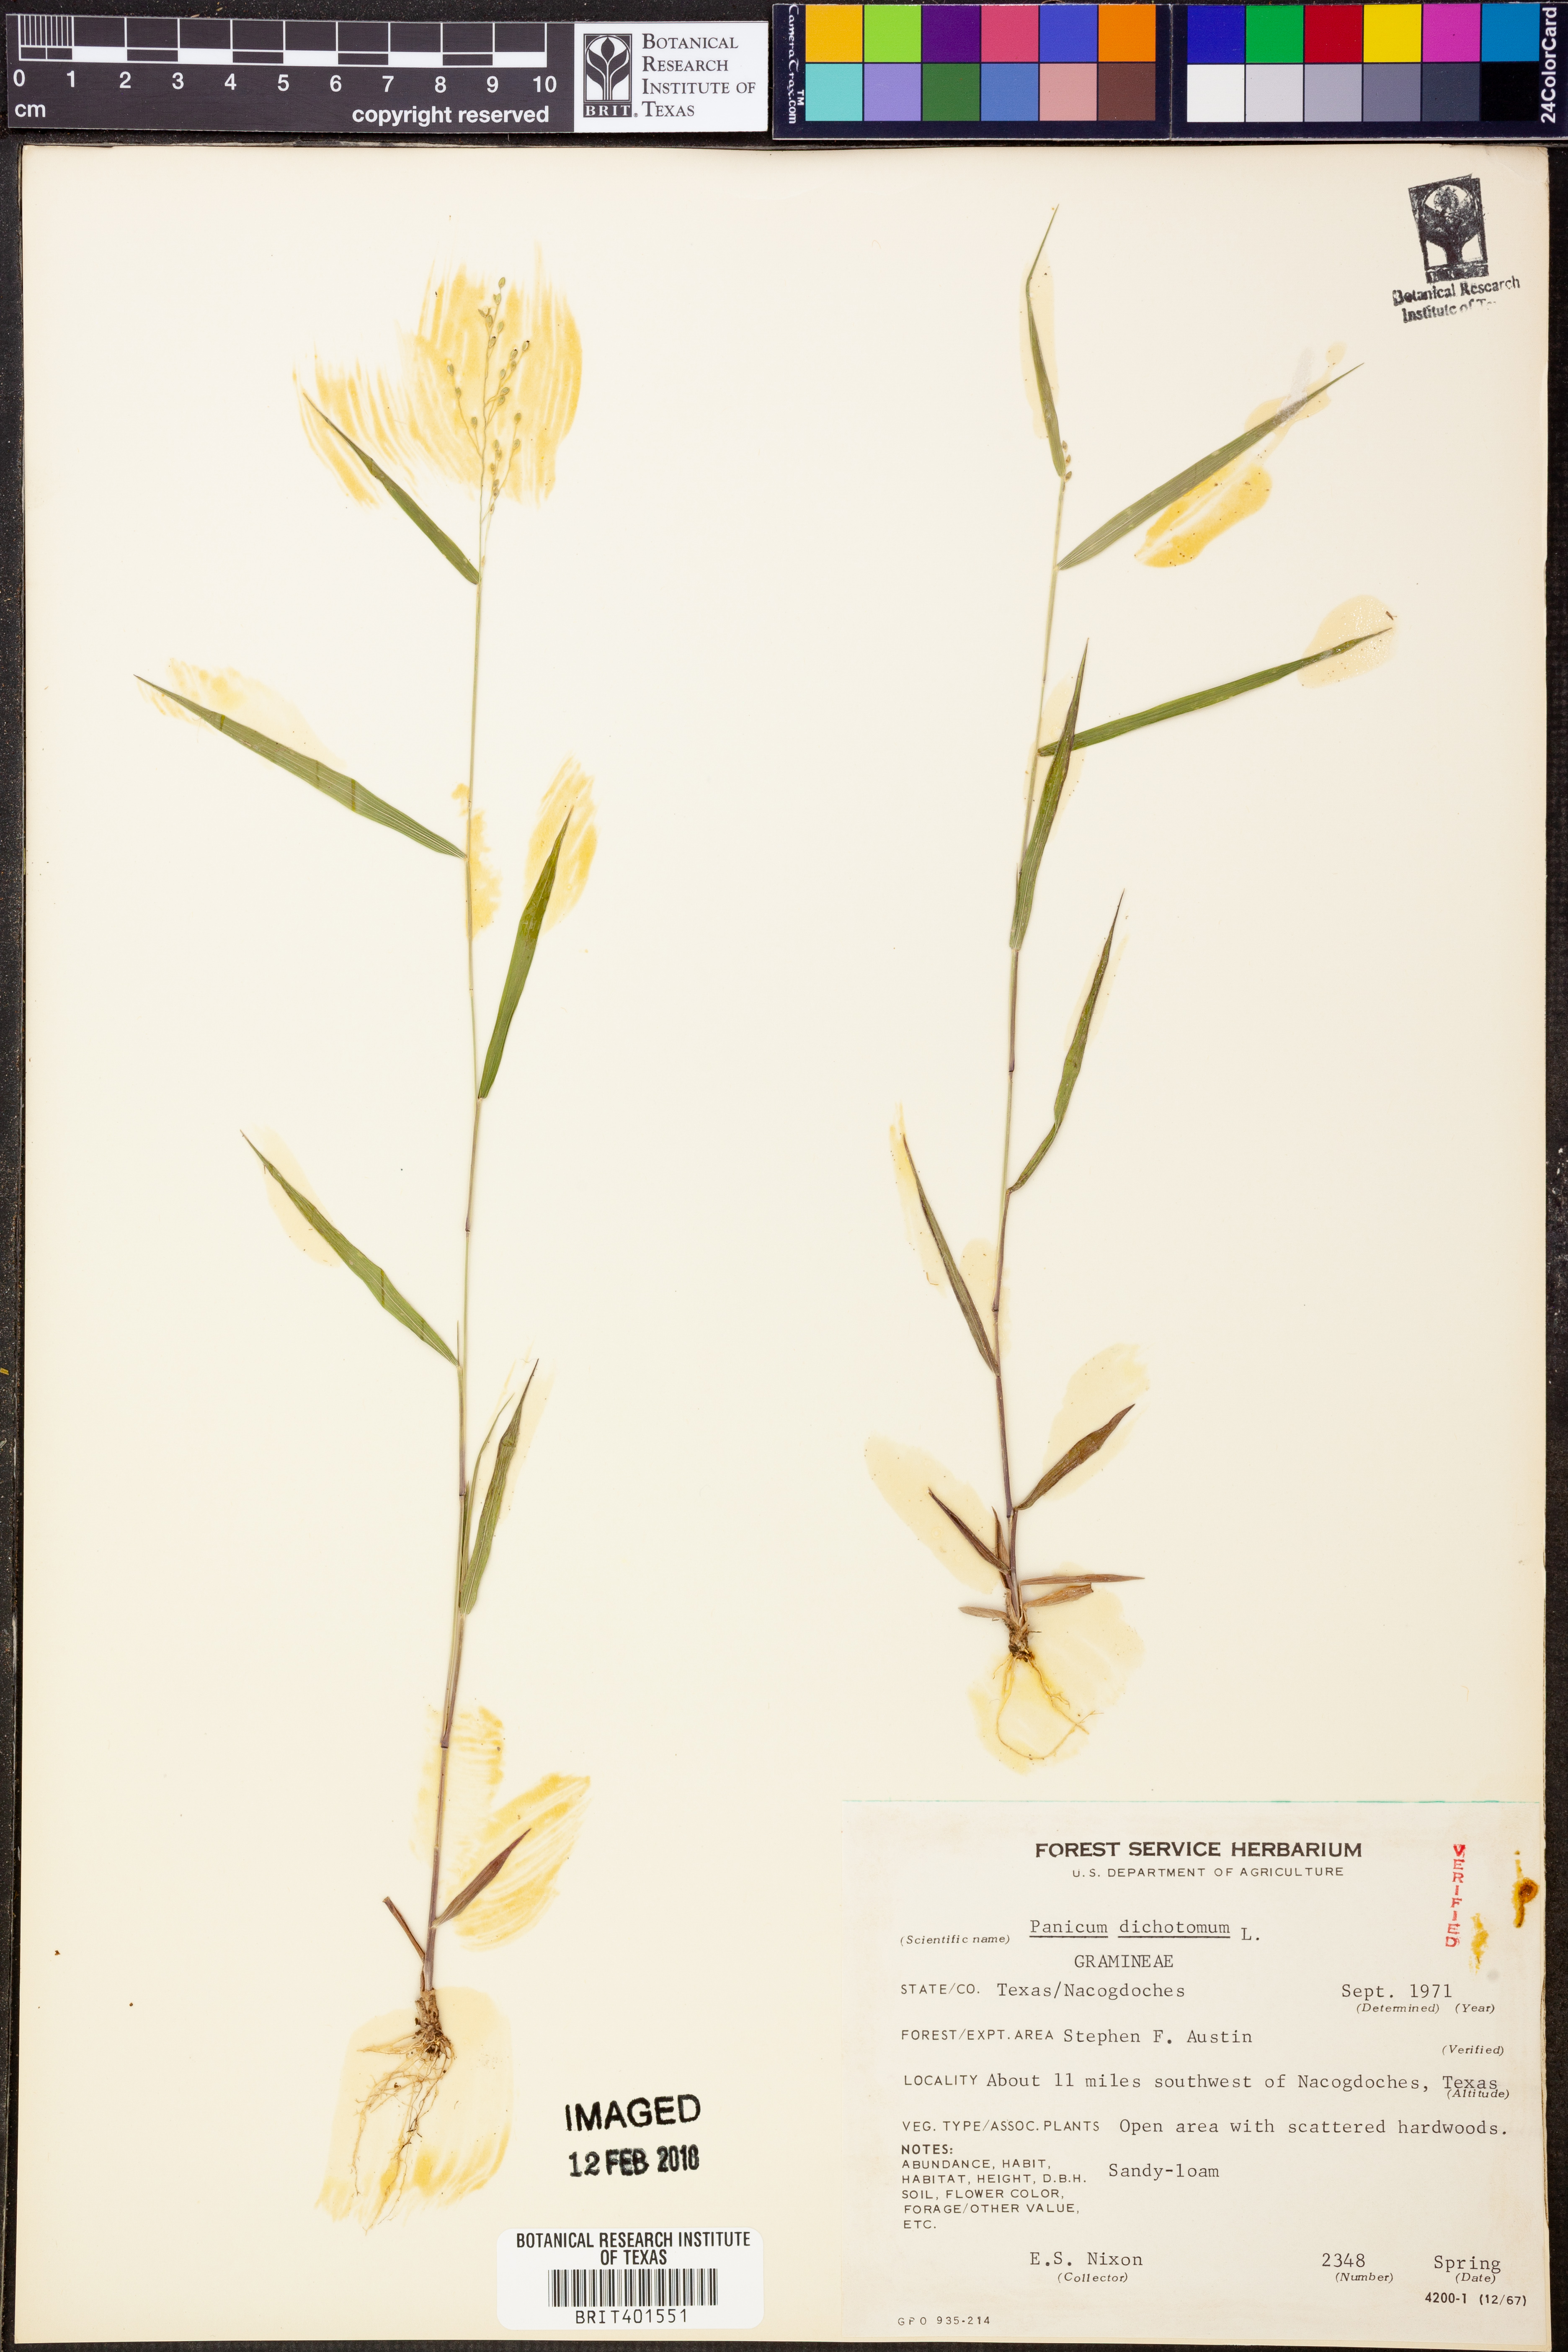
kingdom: Plantae
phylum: Tracheophyta
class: Liliopsida
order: Poales
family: Poaceae
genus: Dichanthelium
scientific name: Dichanthelium dichotomum
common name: Cypress panicgrass
